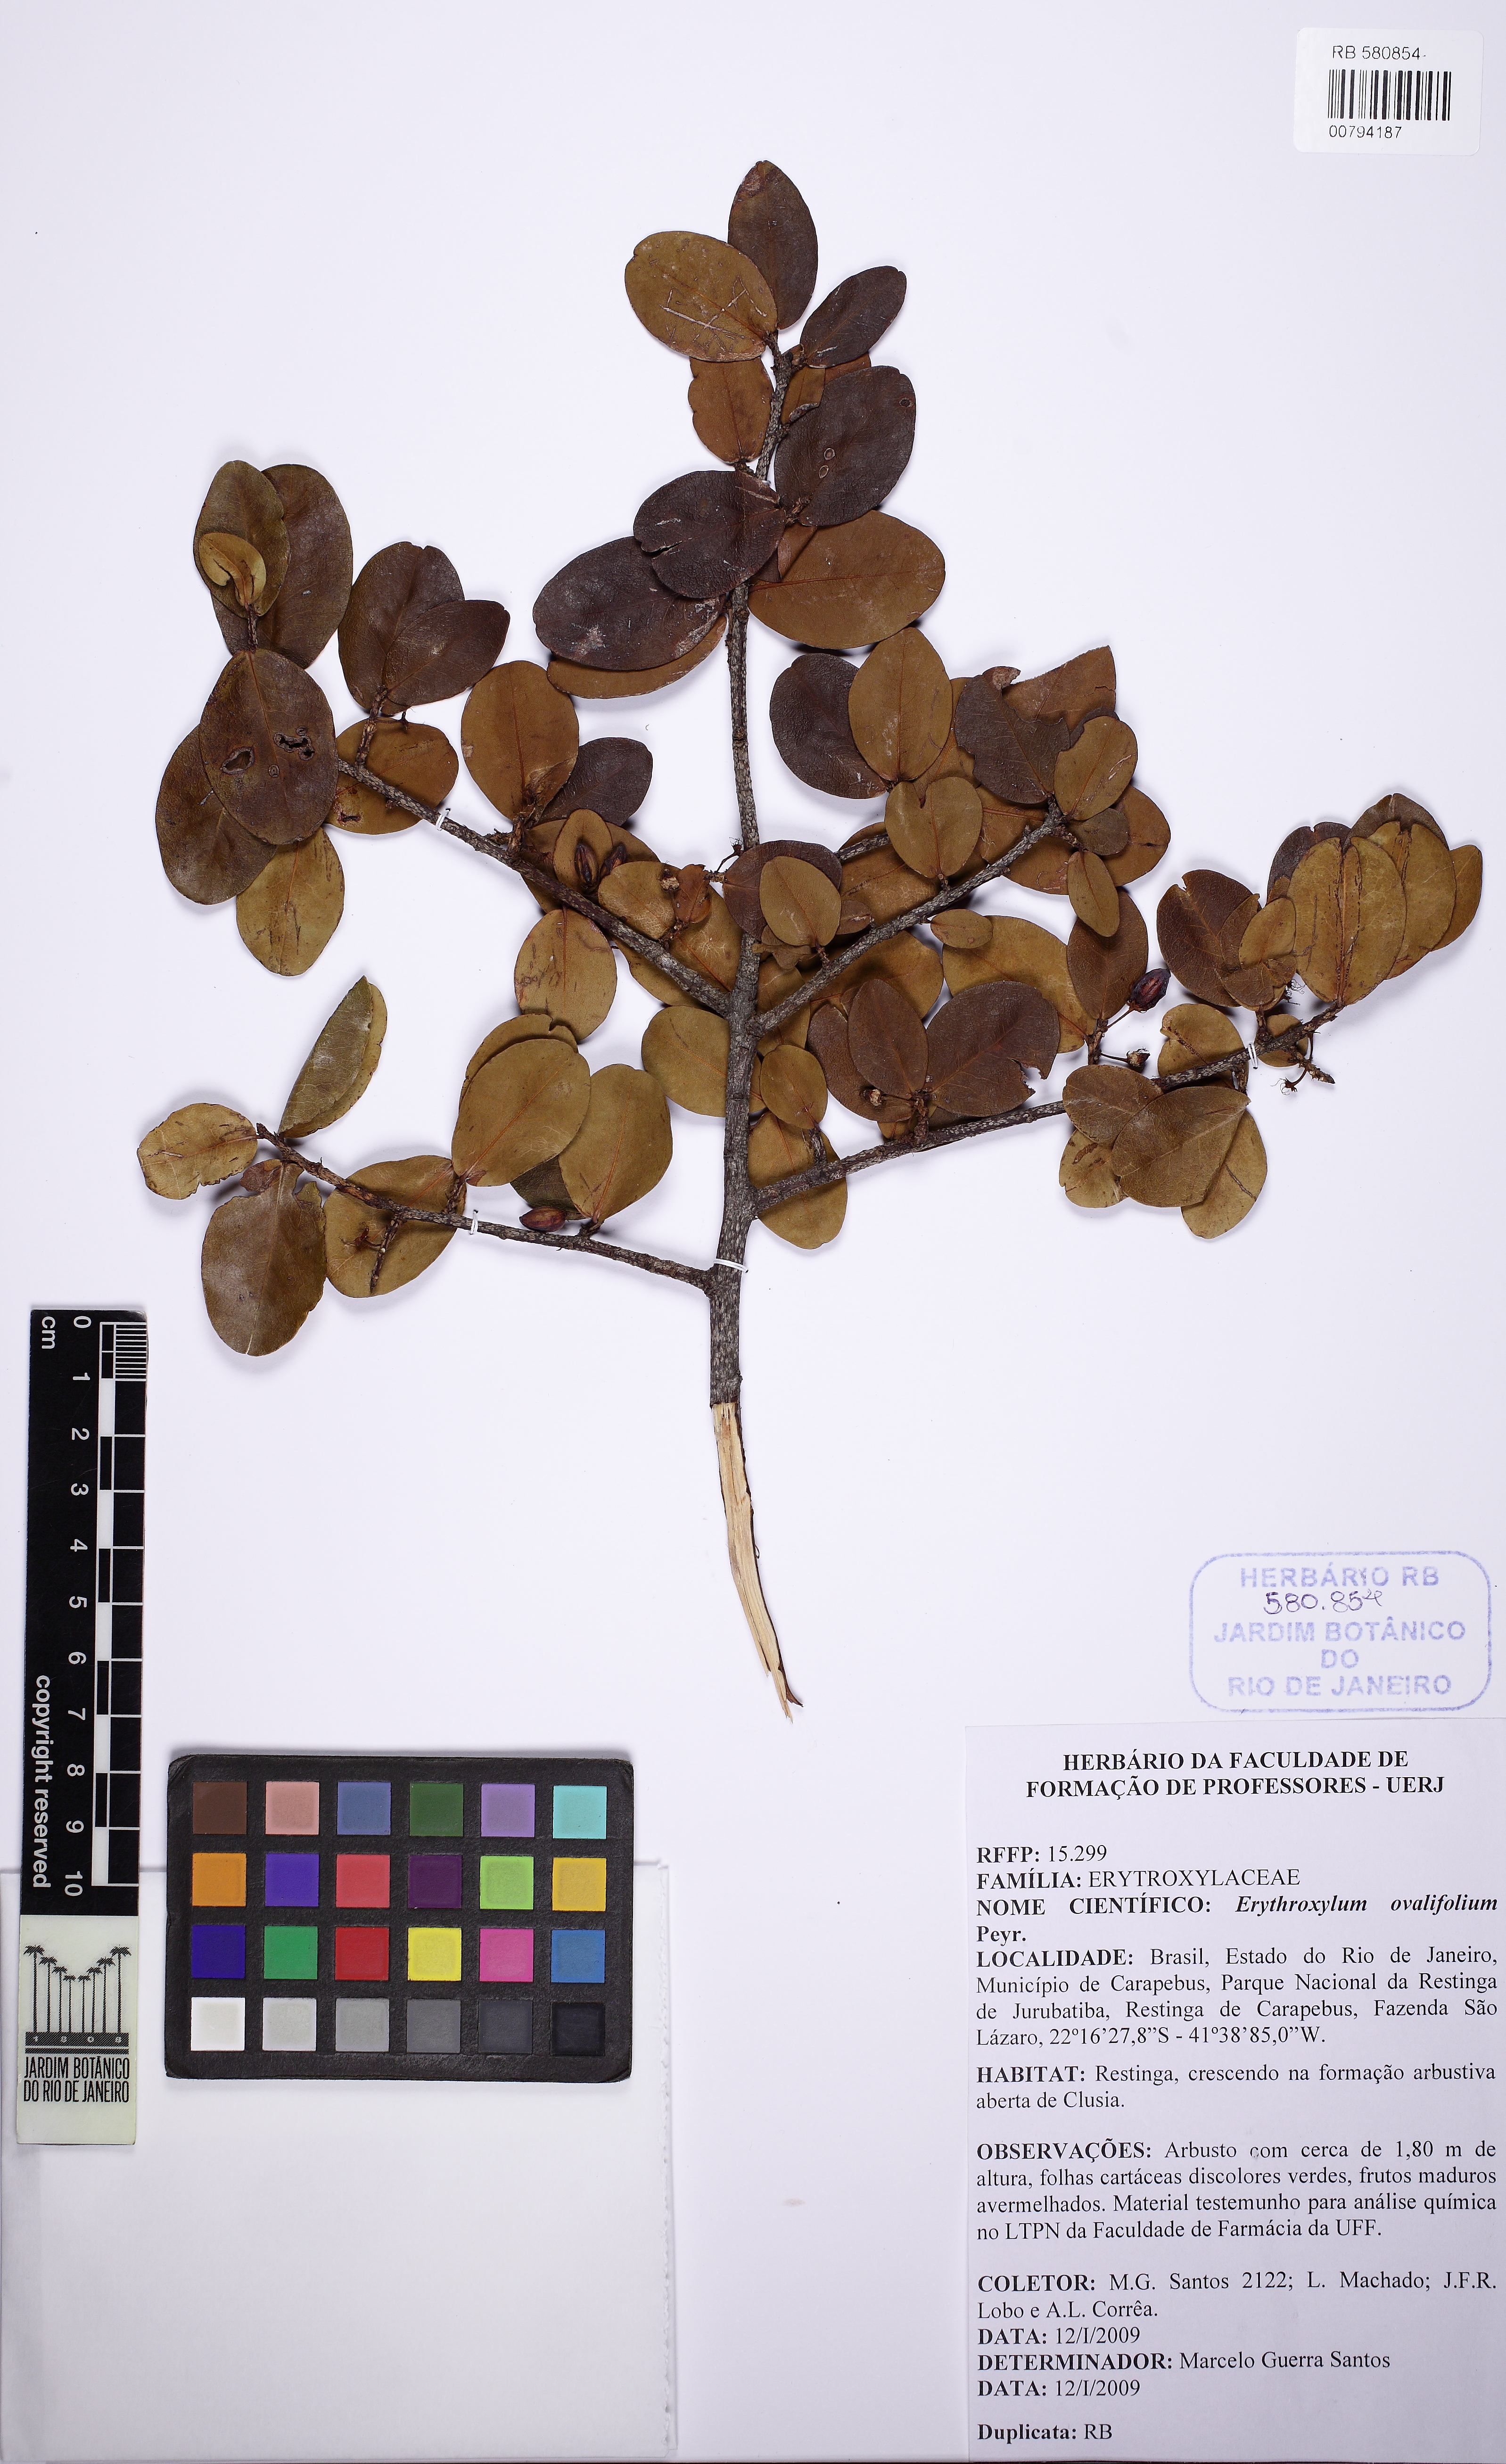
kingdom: Plantae
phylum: Tracheophyta
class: Magnoliopsida
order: Malpighiales
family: Erythroxylaceae
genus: Erythroxylum
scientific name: Erythroxylum ovalifolium
